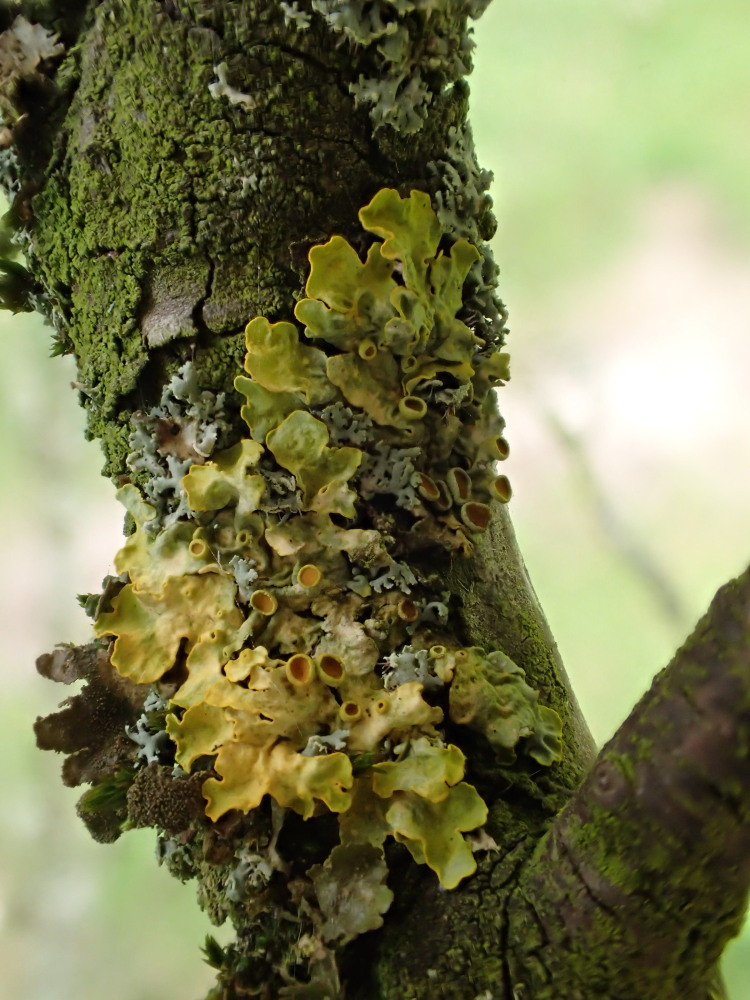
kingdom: Fungi
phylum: Ascomycota
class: Lecanoromycetes
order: Teloschistales
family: Teloschistaceae
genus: Xanthoria
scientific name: Xanthoria parietina
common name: almindelig væggelav
